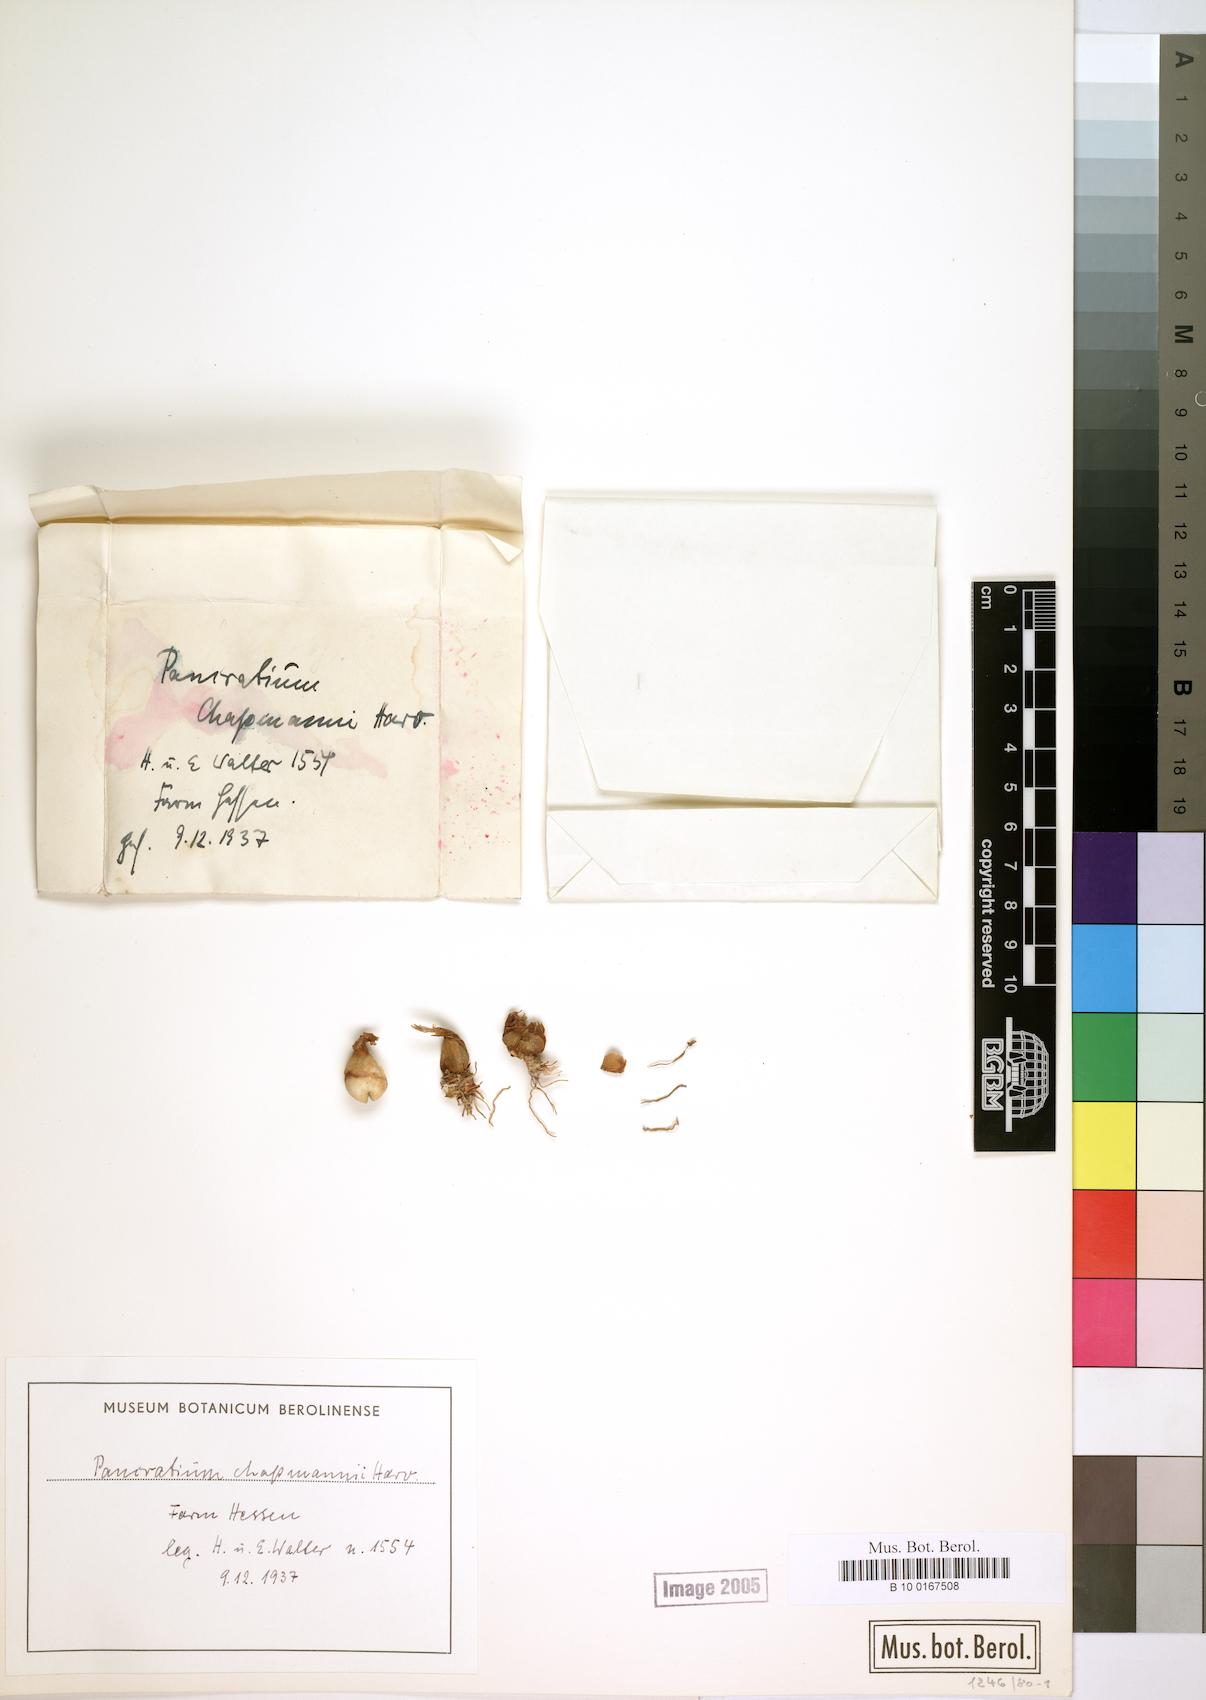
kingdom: Plantae
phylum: Tracheophyta
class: Liliopsida
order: Asparagales
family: Amaryllidaceae
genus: Pancratium
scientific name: Pancratium tenuifolium
